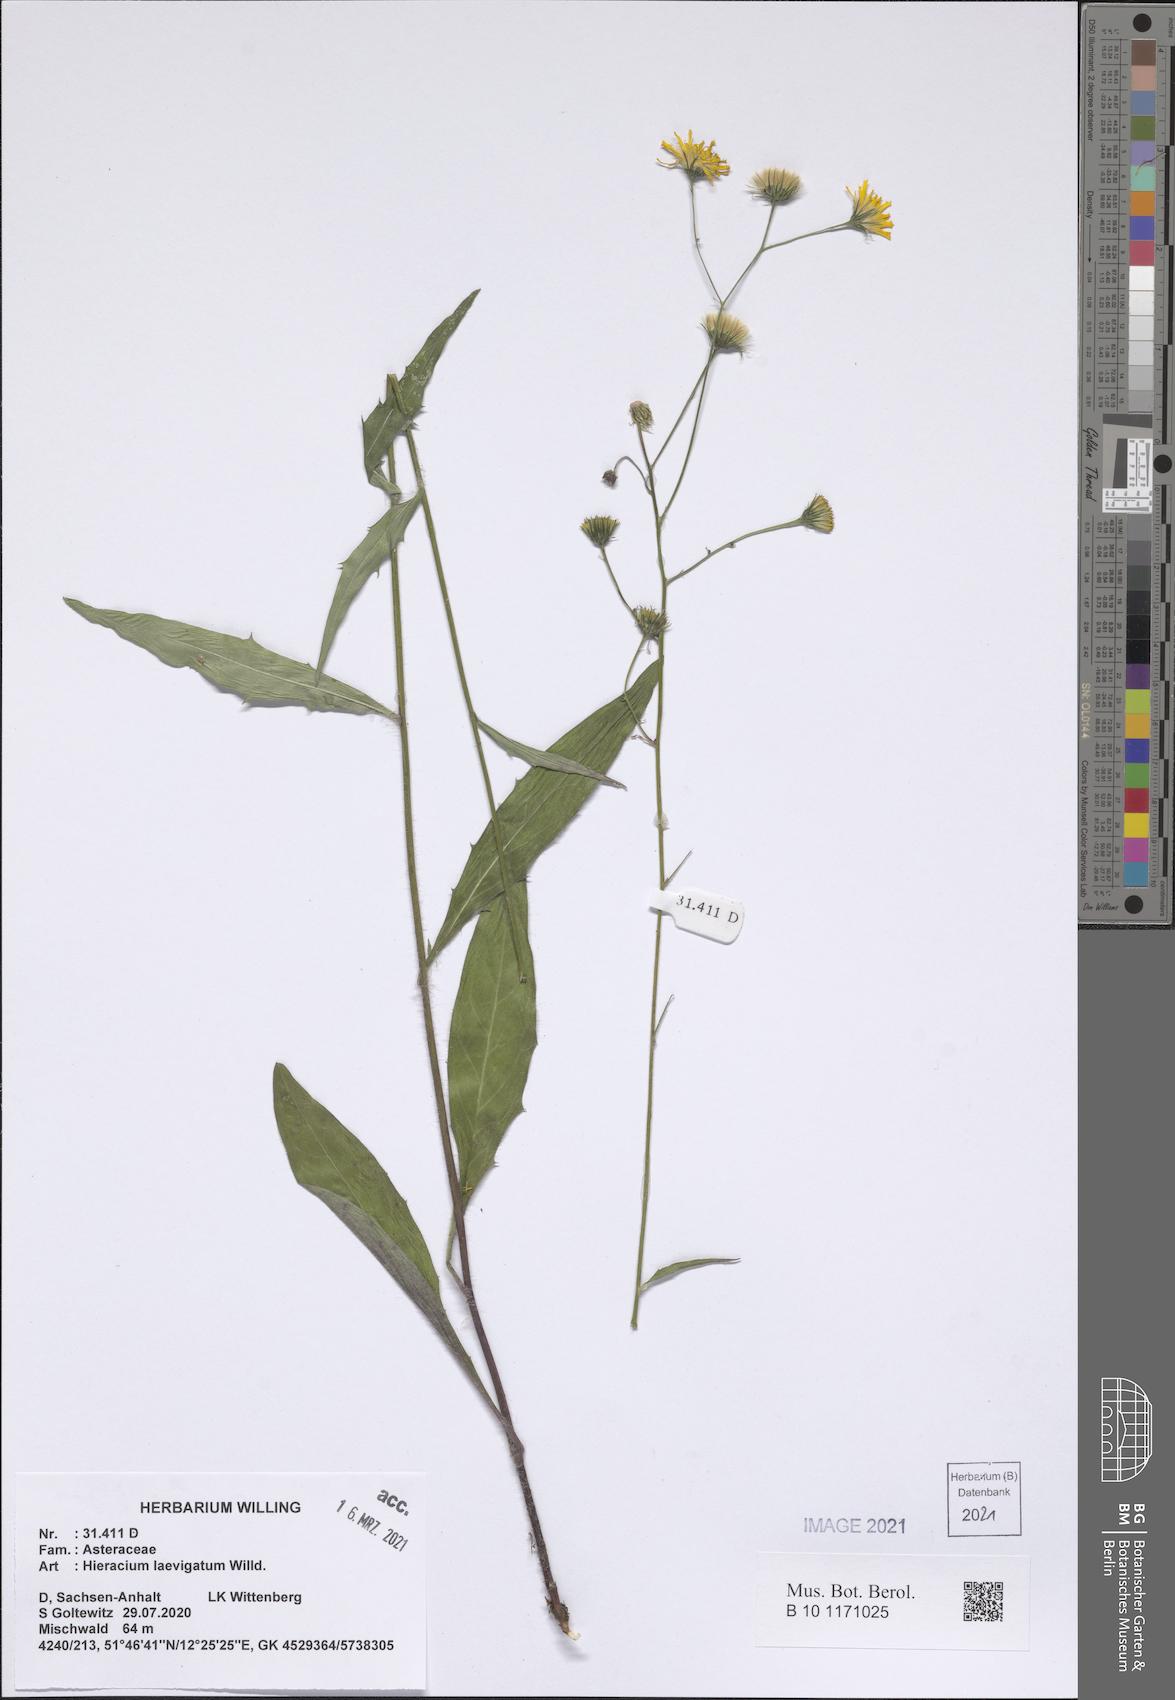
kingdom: Plantae
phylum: Tracheophyta
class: Magnoliopsida
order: Asterales
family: Asteraceae
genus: Hieracium
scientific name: Hieracium laevigatum
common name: Smooth hawkweed
